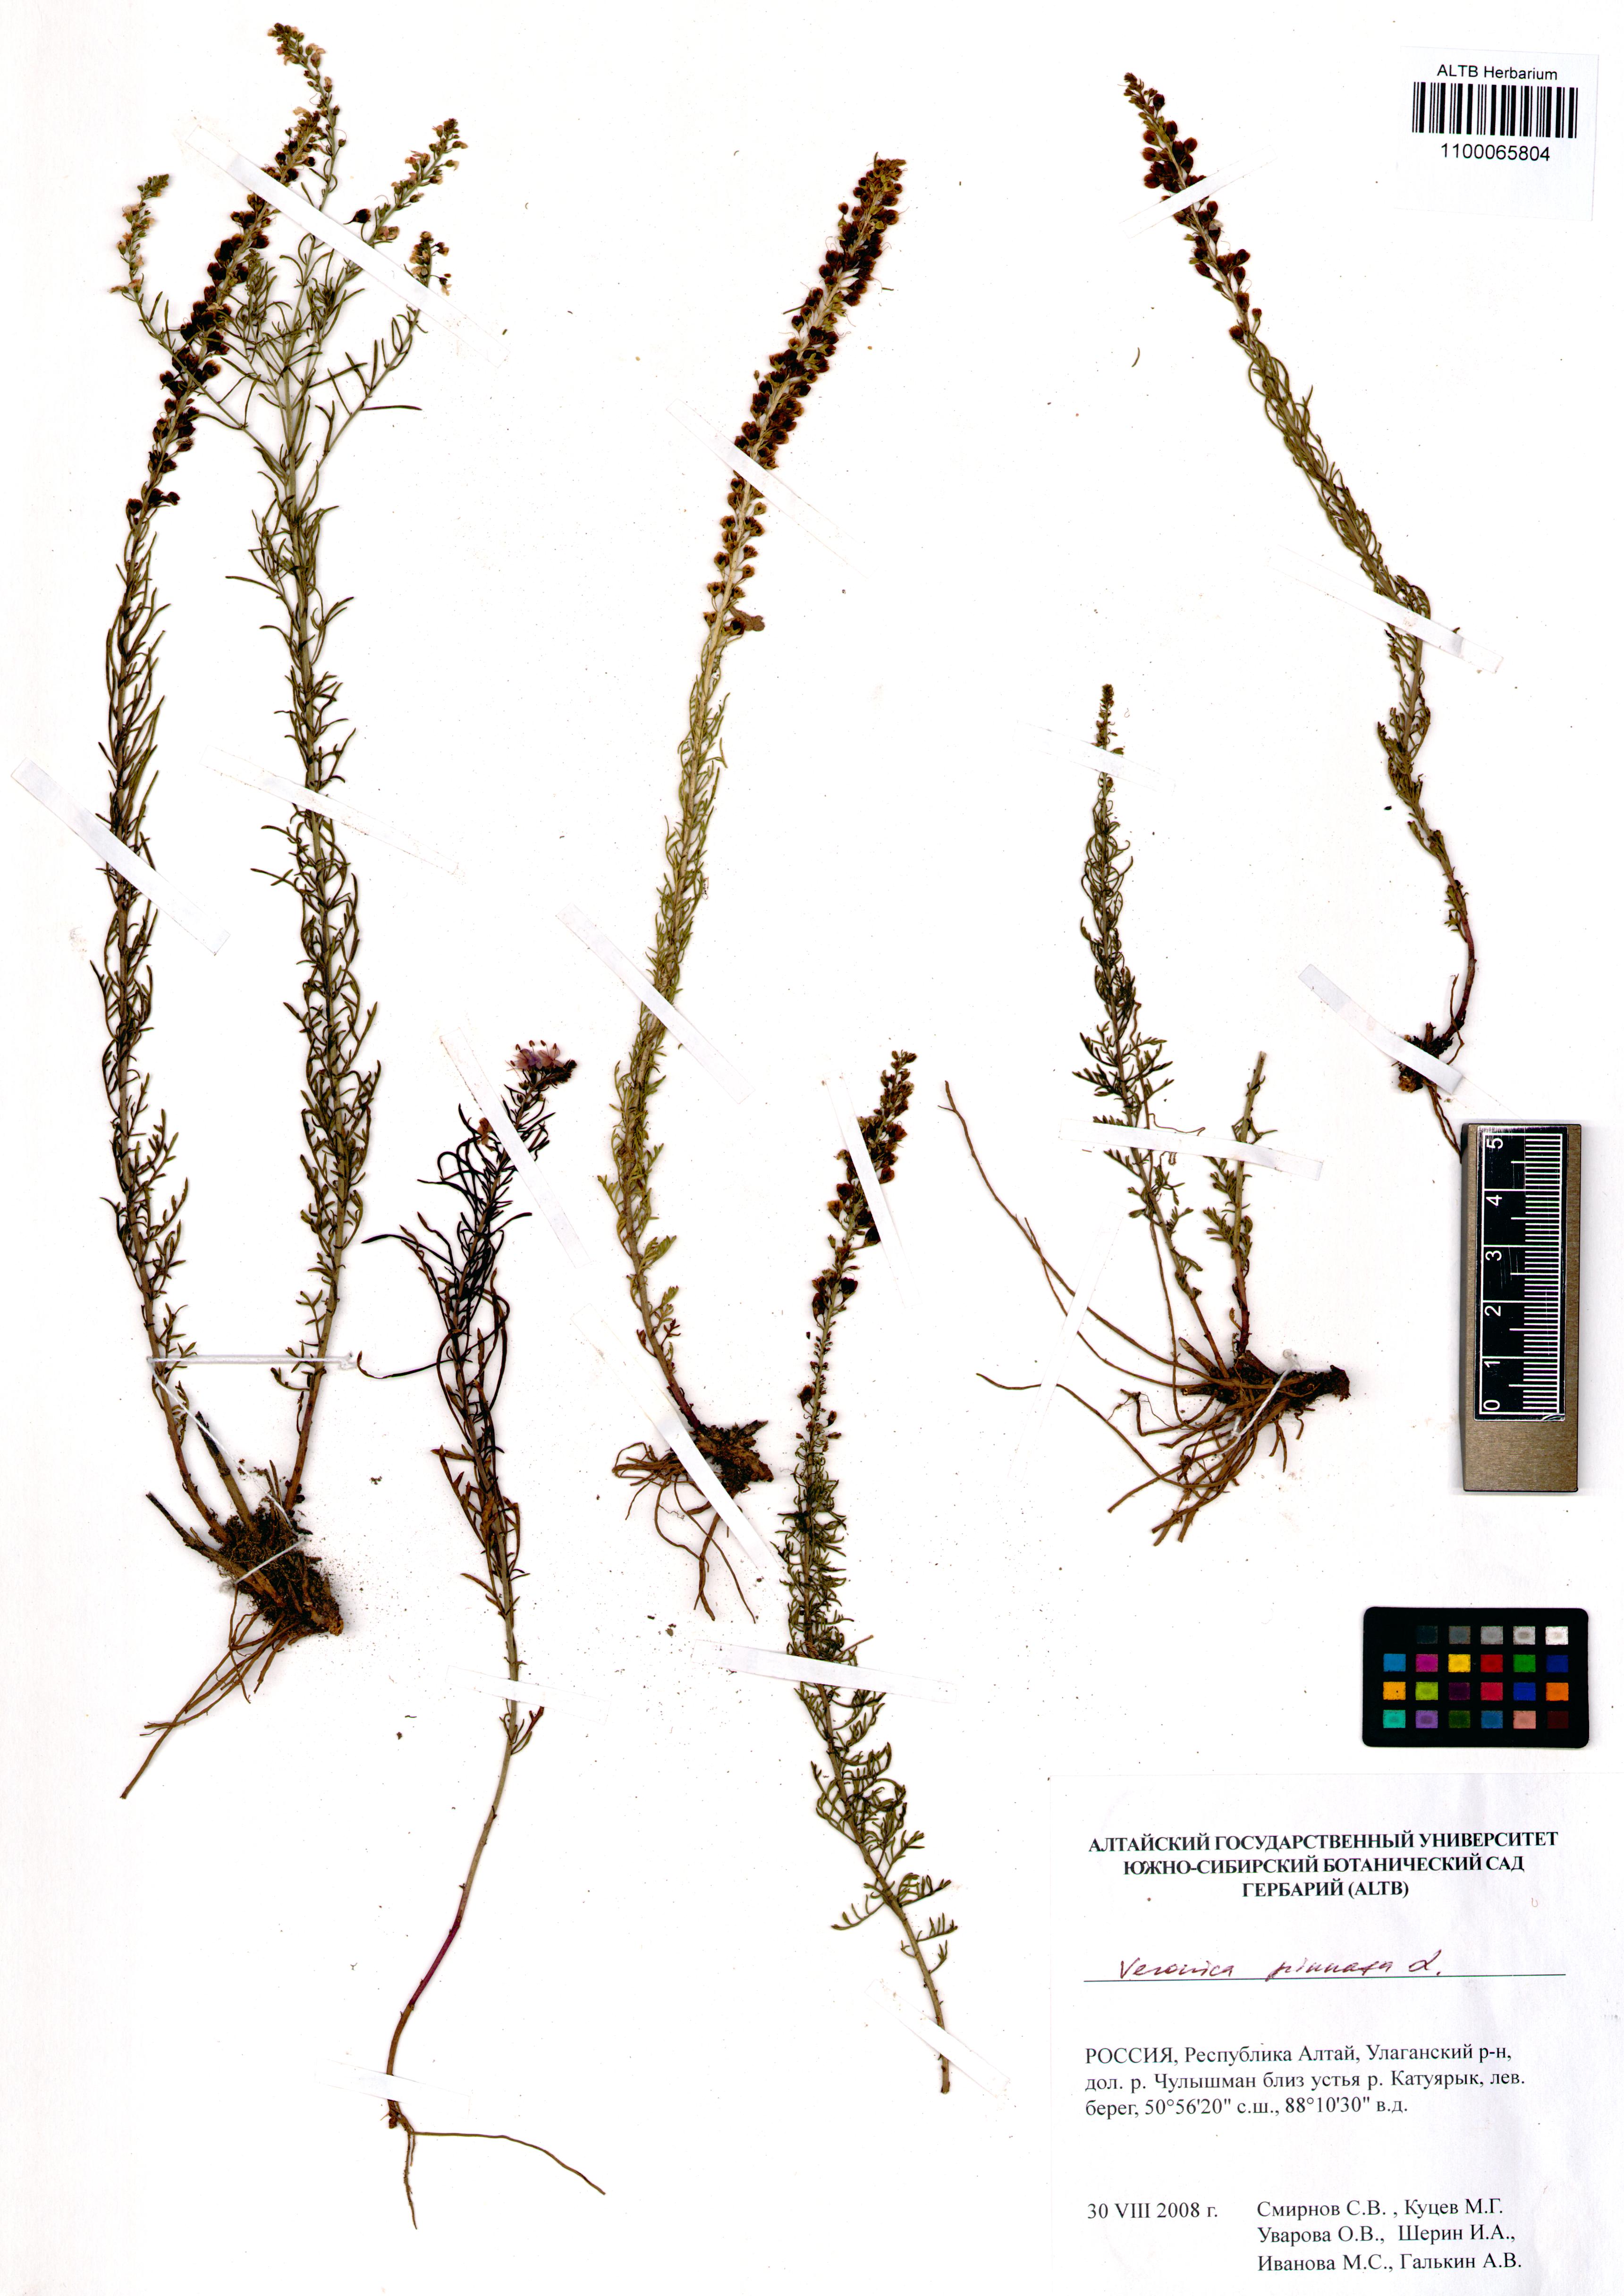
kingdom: Plantae
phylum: Tracheophyta
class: Magnoliopsida
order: Lamiales
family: Plantaginaceae
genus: Veronica
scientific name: Veronica pinnata
